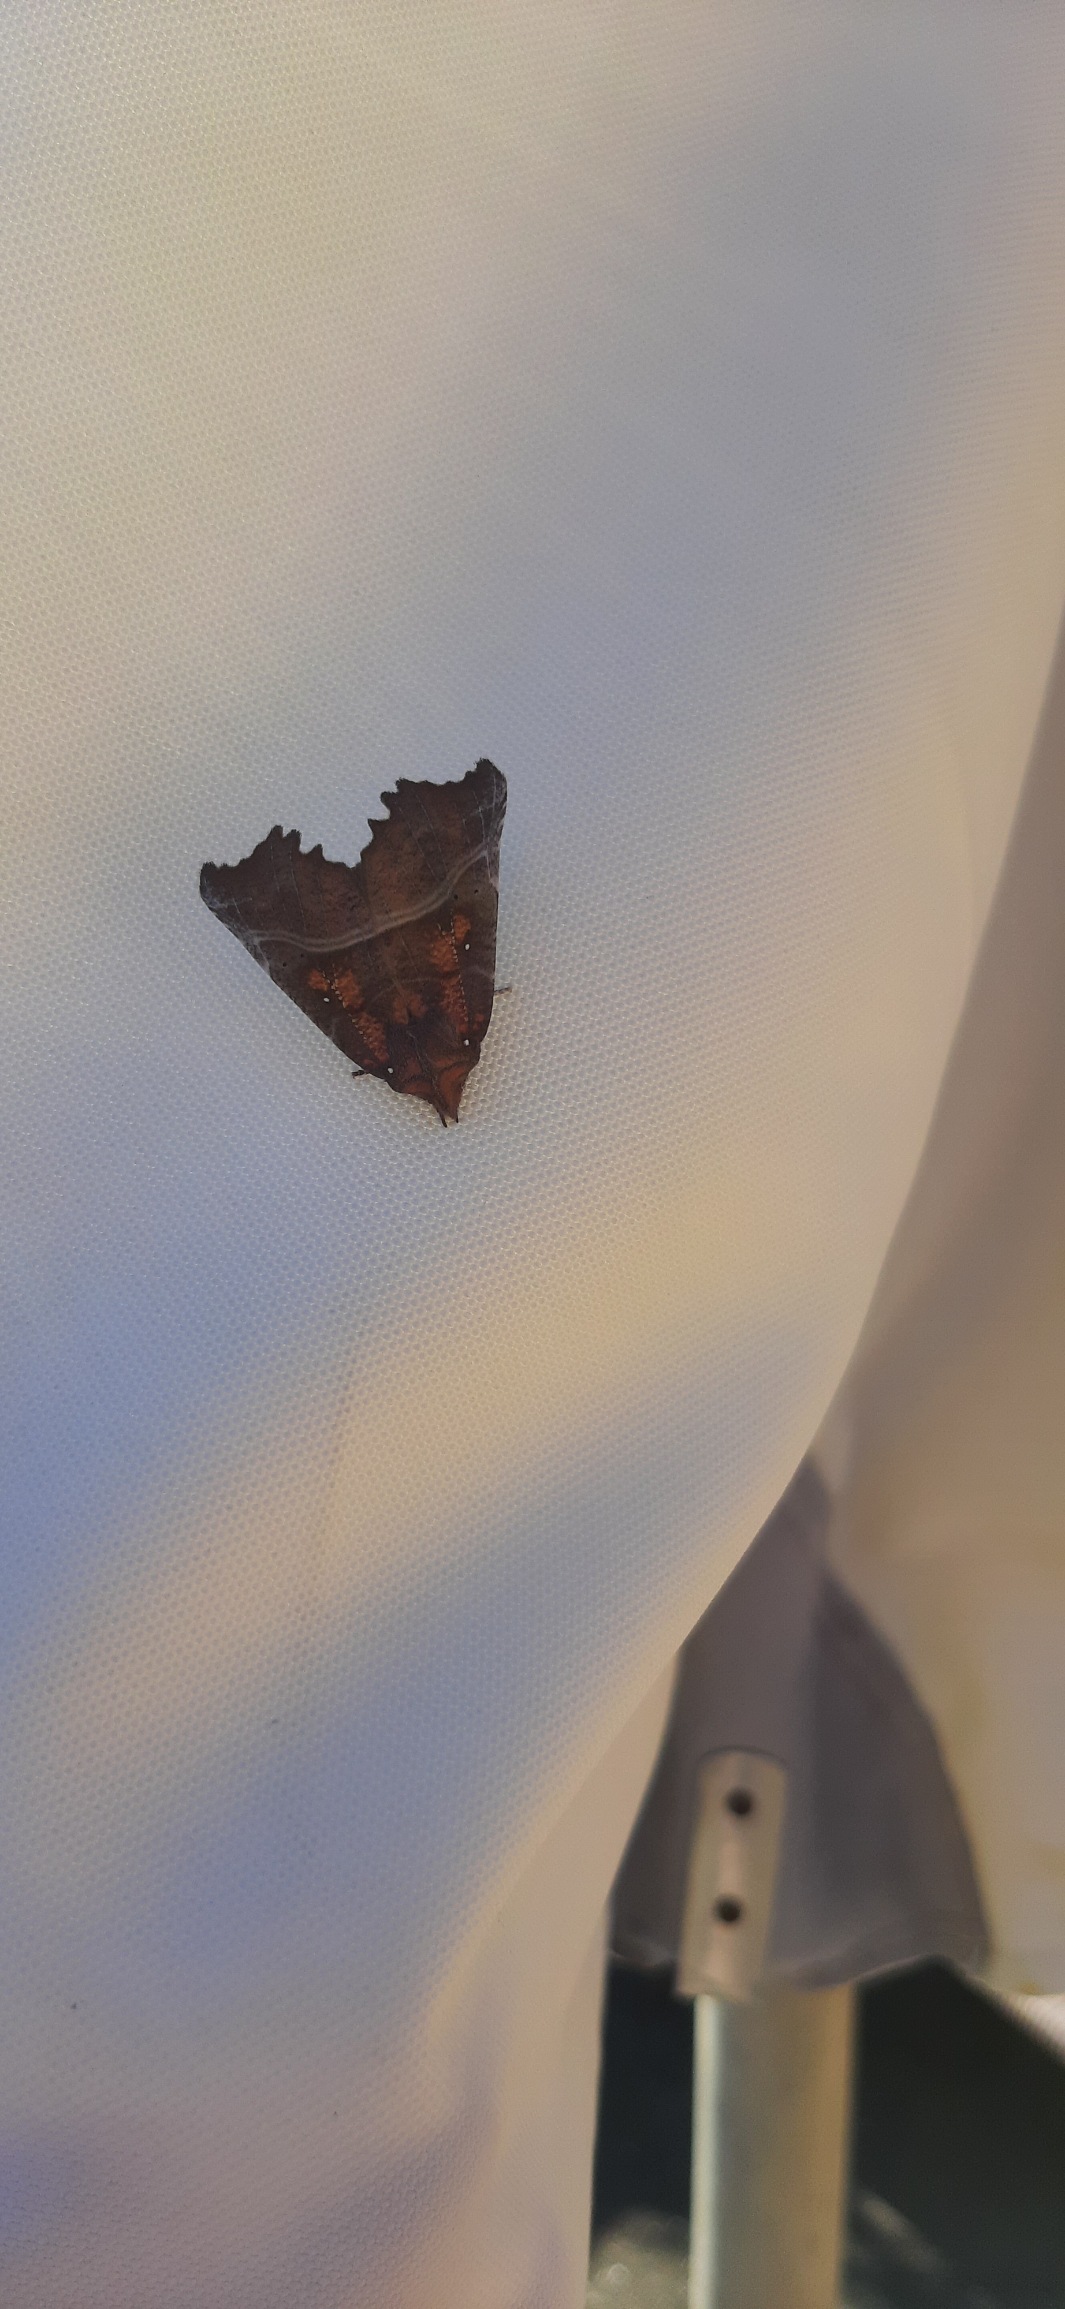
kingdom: Animalia
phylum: Arthropoda
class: Insecta
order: Lepidoptera
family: Erebidae
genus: Scoliopteryx
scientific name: Scoliopteryx libatrix
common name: Husmoderugle
